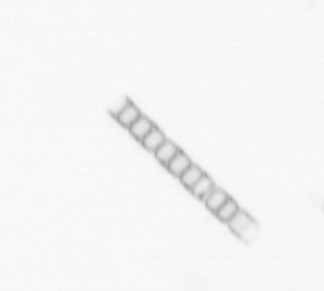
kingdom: Chromista
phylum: Ochrophyta
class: Bacillariophyceae
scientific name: Bacillariophyceae
